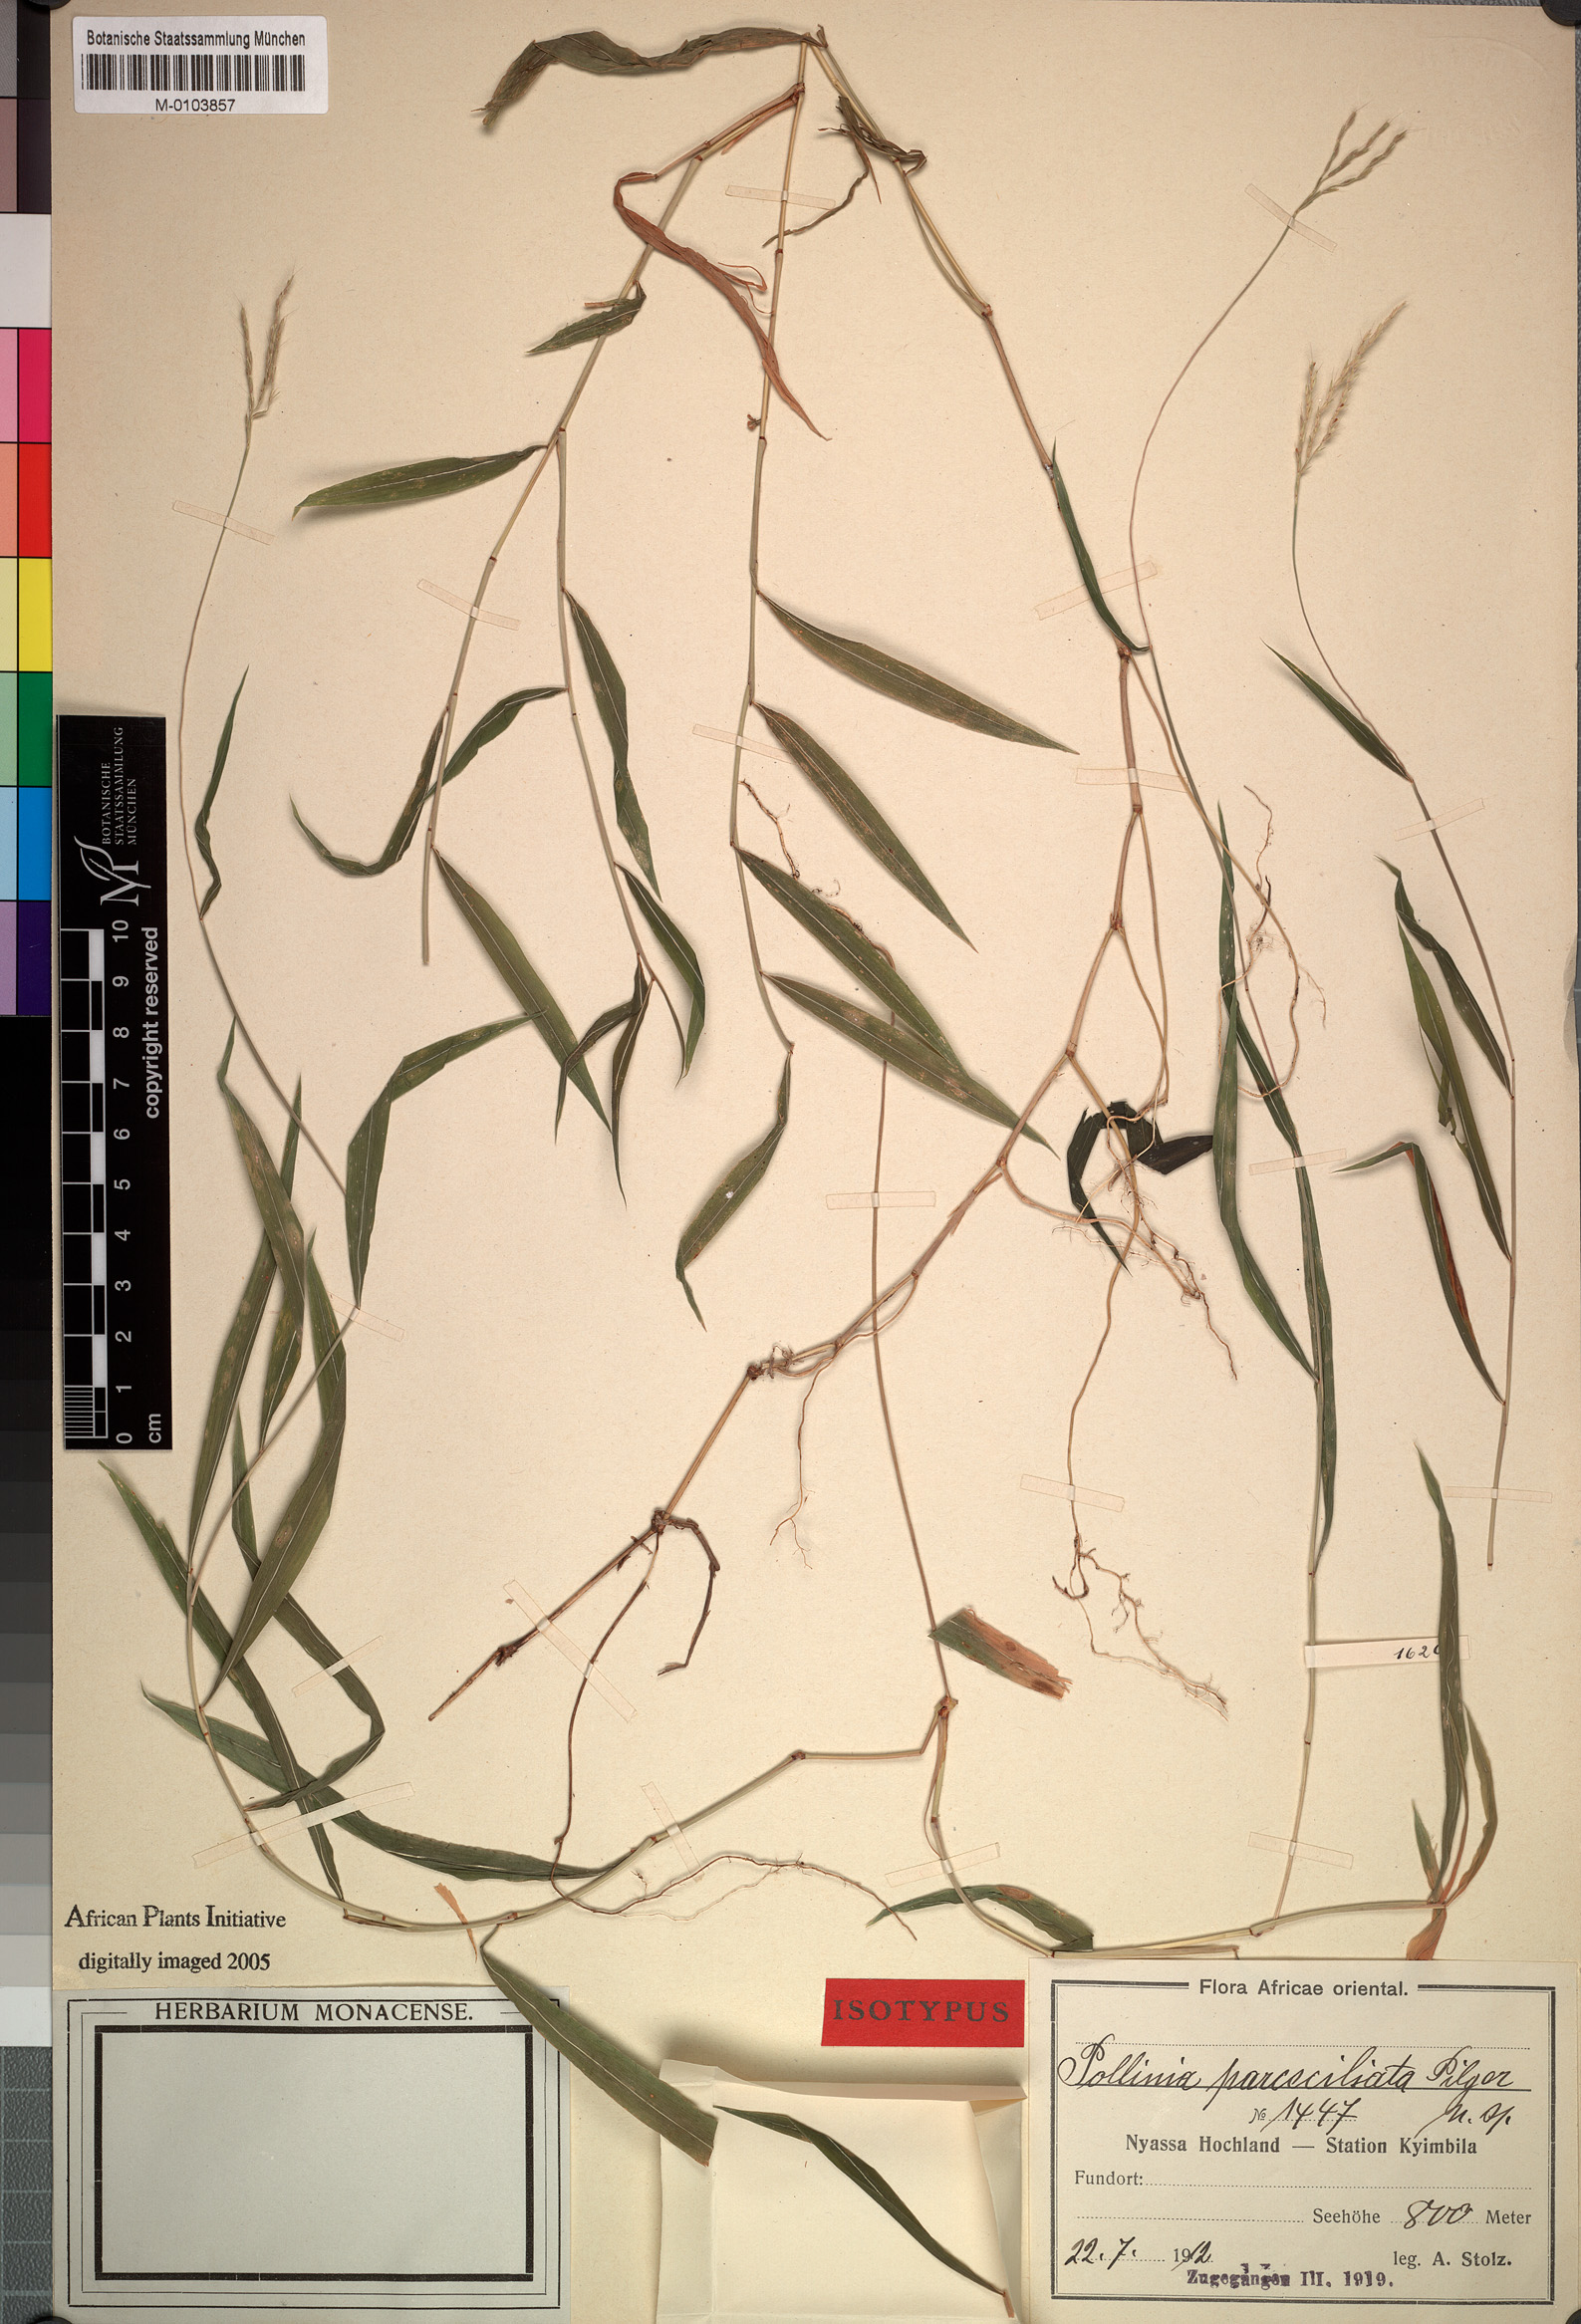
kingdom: Plantae
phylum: Tracheophyta
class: Liliopsida
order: Poales
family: Poaceae
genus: Microstegium
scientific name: Microstegium fasciculatum
